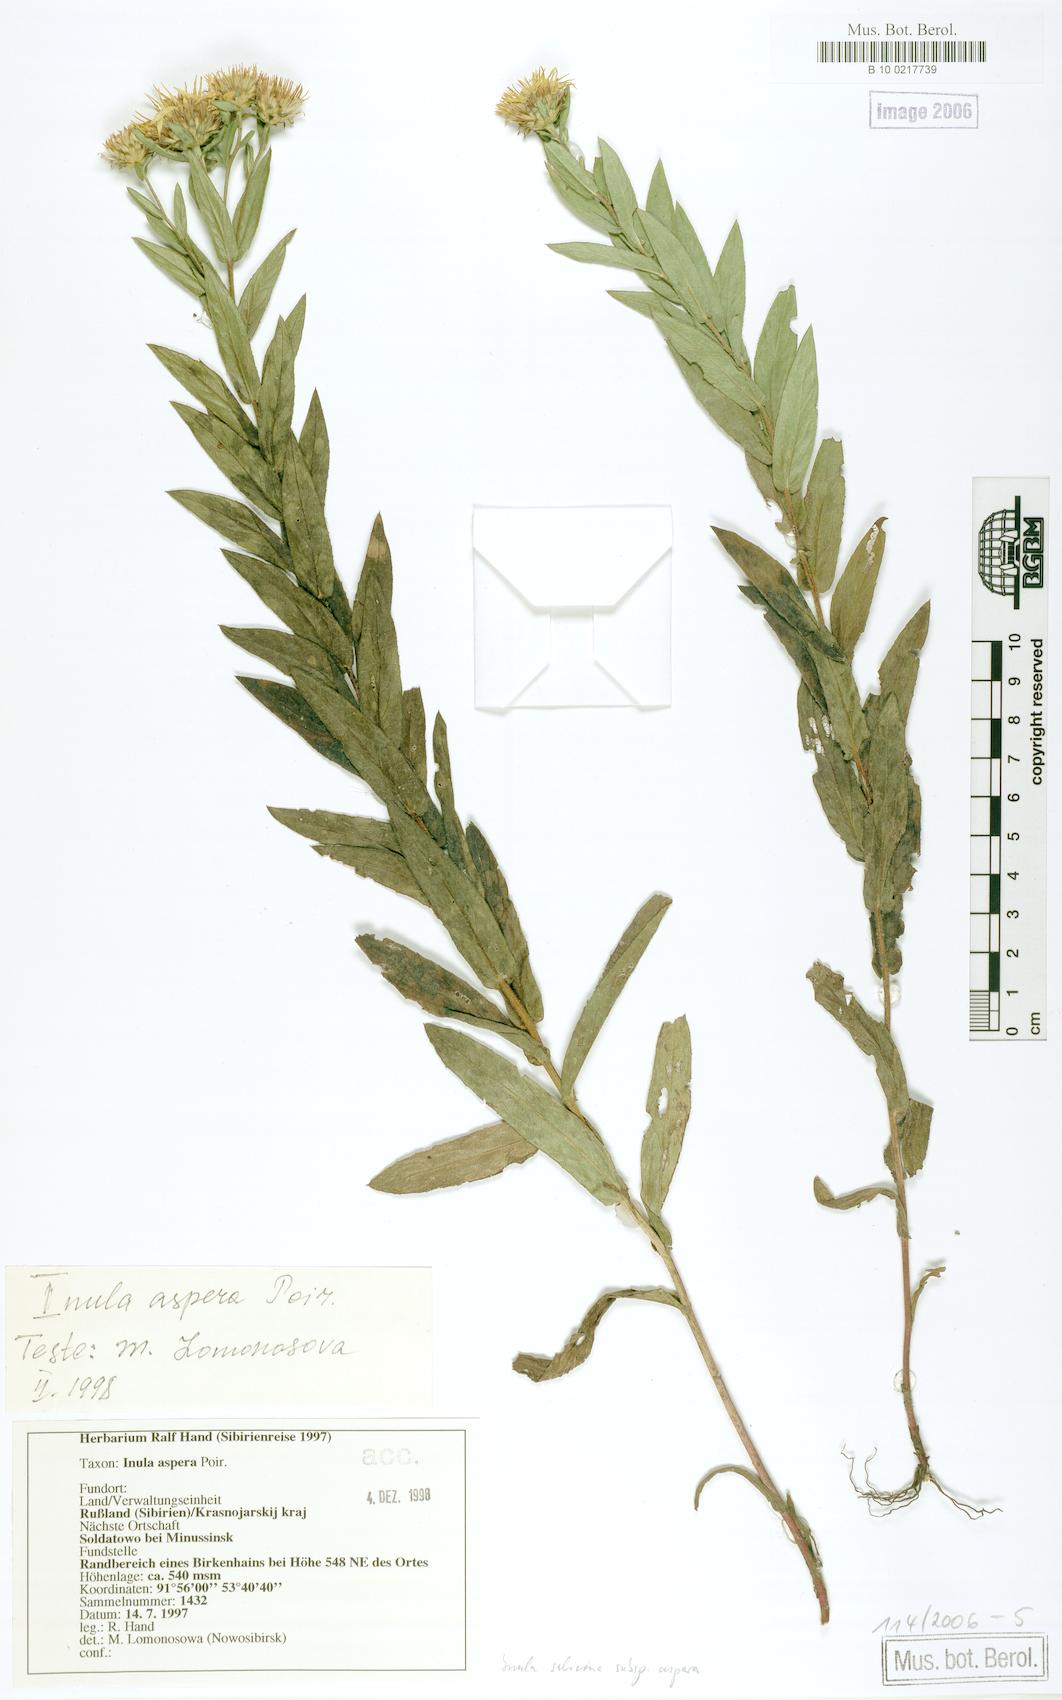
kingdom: Plantae
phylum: Tracheophyta
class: Magnoliopsida
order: Asterales
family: Asteraceae
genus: Pentanema
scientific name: Pentanema salicinum
